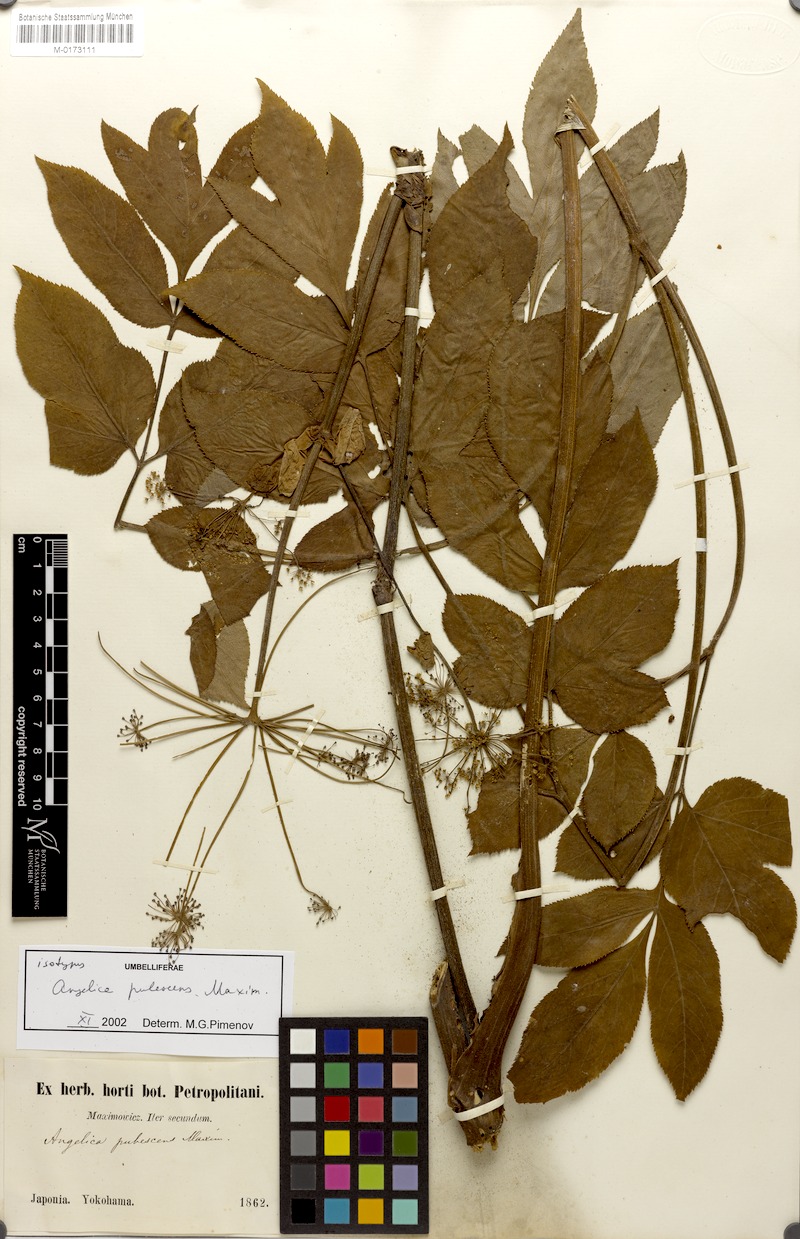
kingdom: Plantae
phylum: Tracheophyta
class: Magnoliopsida
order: Apiales
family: Apiaceae
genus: Angelica
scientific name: Angelica pubescens
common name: Pubescent angelica
